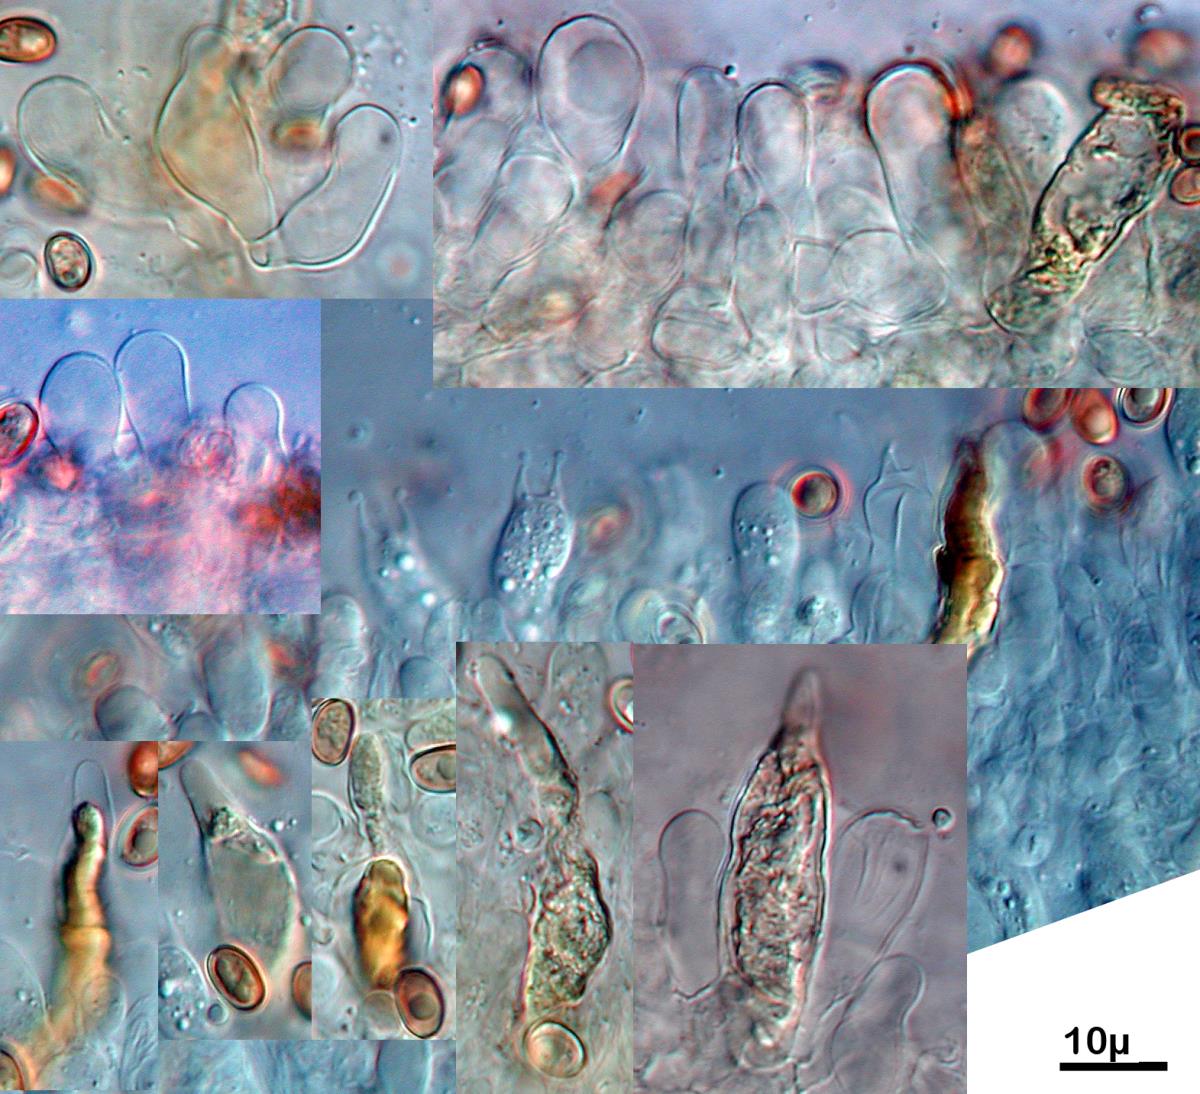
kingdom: Fungi
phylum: Basidiomycota
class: Agaricomycetes
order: Agaricales
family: Strophariaceae
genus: Pholiota
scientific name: Pholiota subflammans
